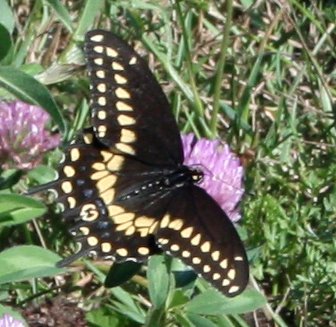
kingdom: Animalia
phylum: Arthropoda
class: Insecta
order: Lepidoptera
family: Papilionidae
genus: Papilio
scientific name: Papilio polyxenes
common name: Black Swallowtail
